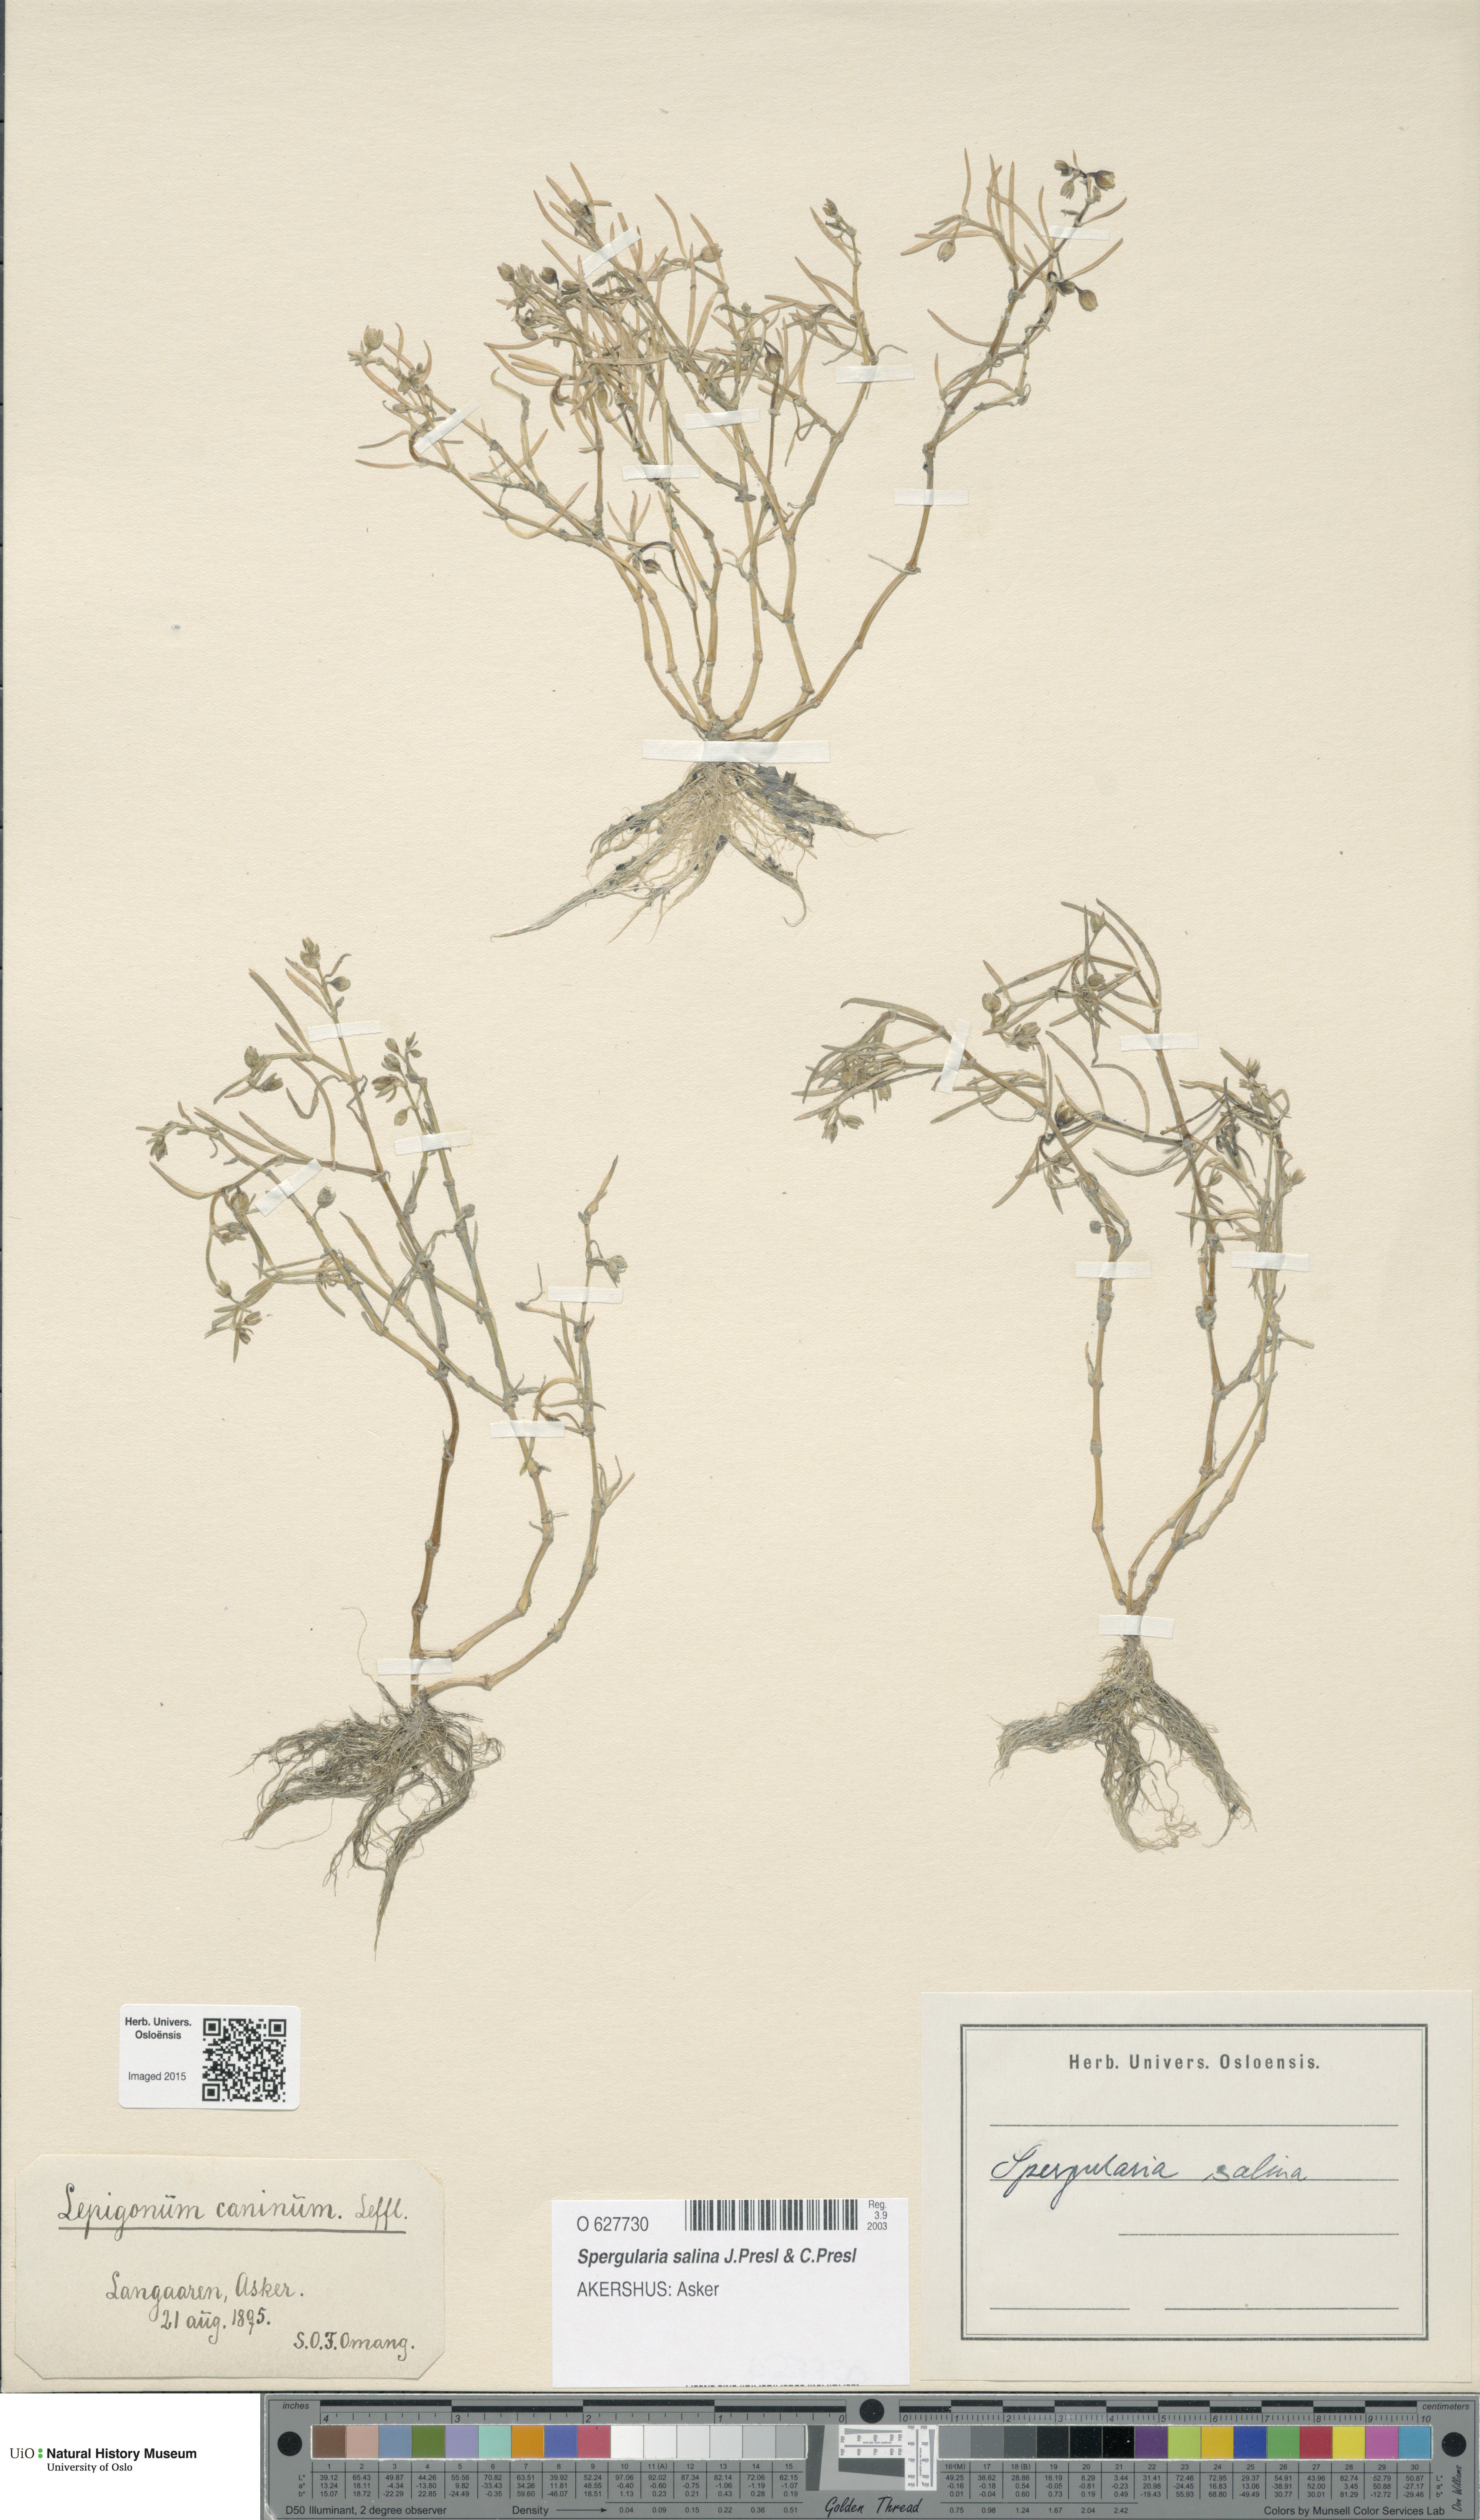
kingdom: Plantae
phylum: Tracheophyta
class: Magnoliopsida
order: Caryophyllales
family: Caryophyllaceae
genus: Spergularia
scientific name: Spergularia marina
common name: Lesser sea-spurrey
